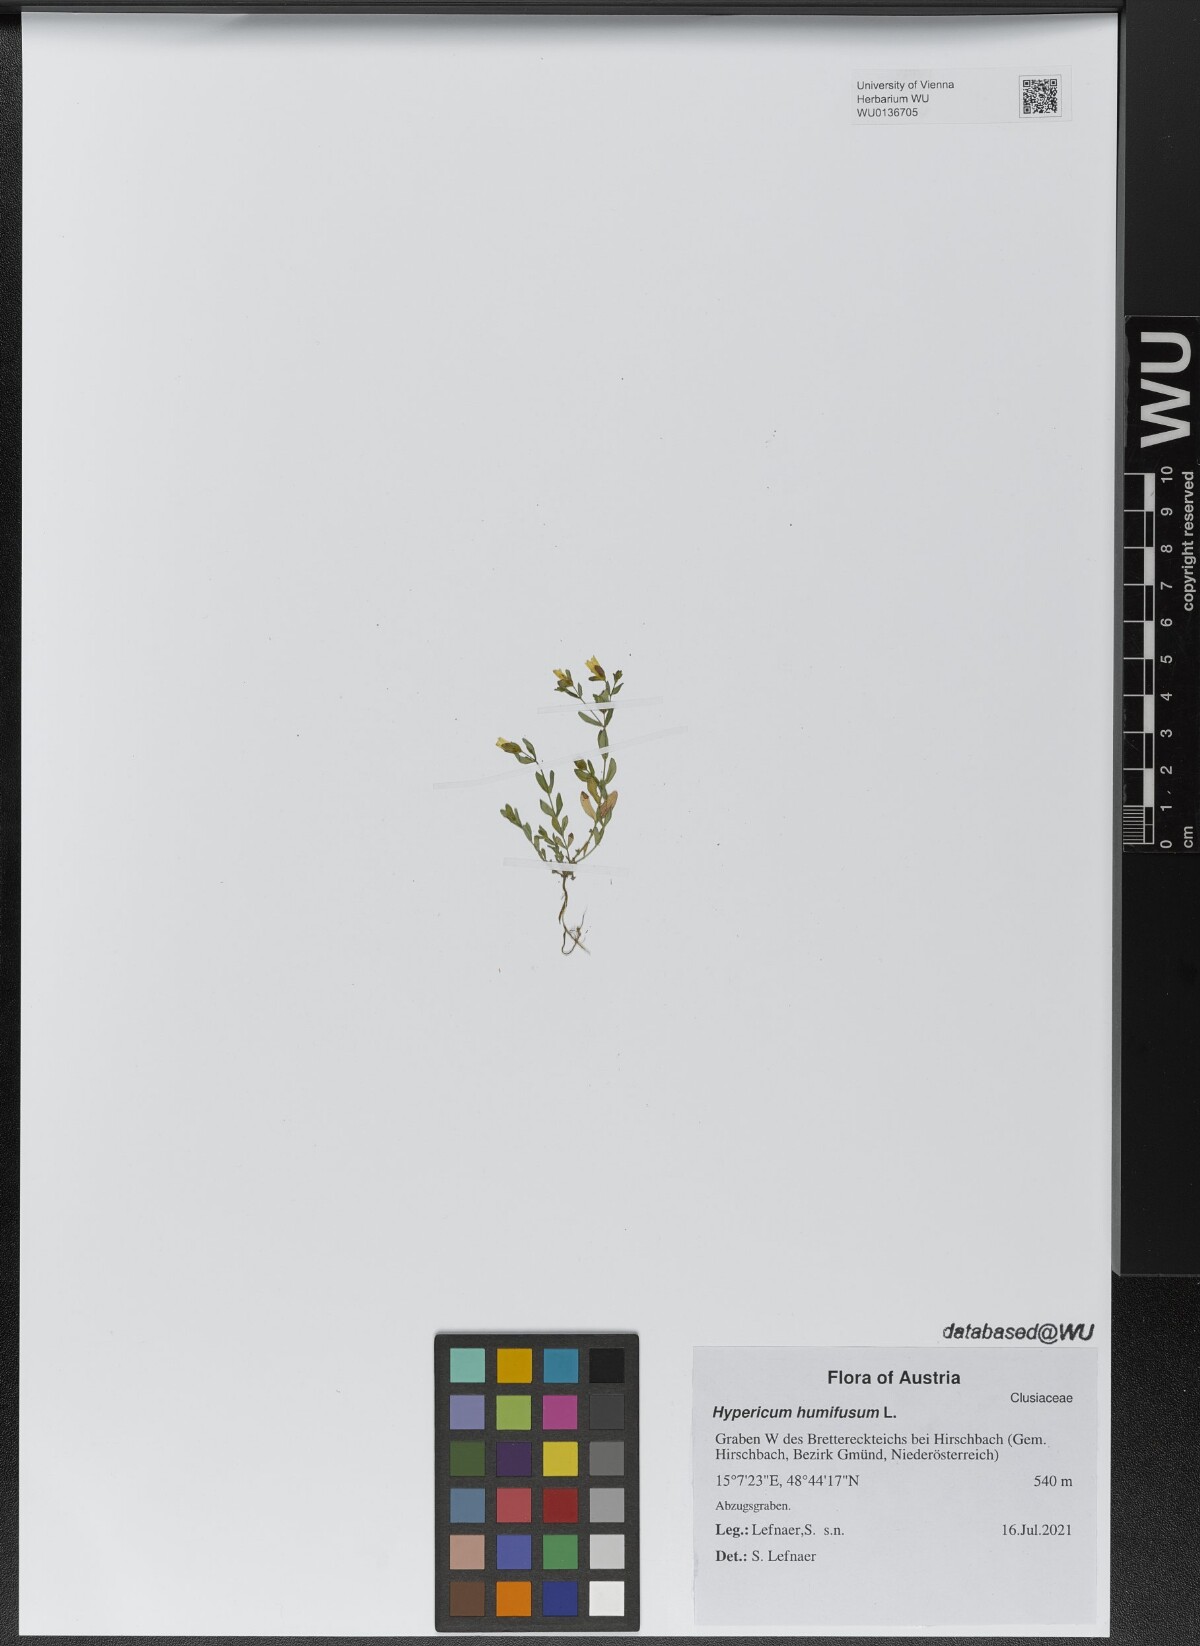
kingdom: Plantae
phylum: Tracheophyta
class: Magnoliopsida
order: Malpighiales
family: Hypericaceae
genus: Hypericum
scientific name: Hypericum humifusum
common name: Trailing st. john's-wort
